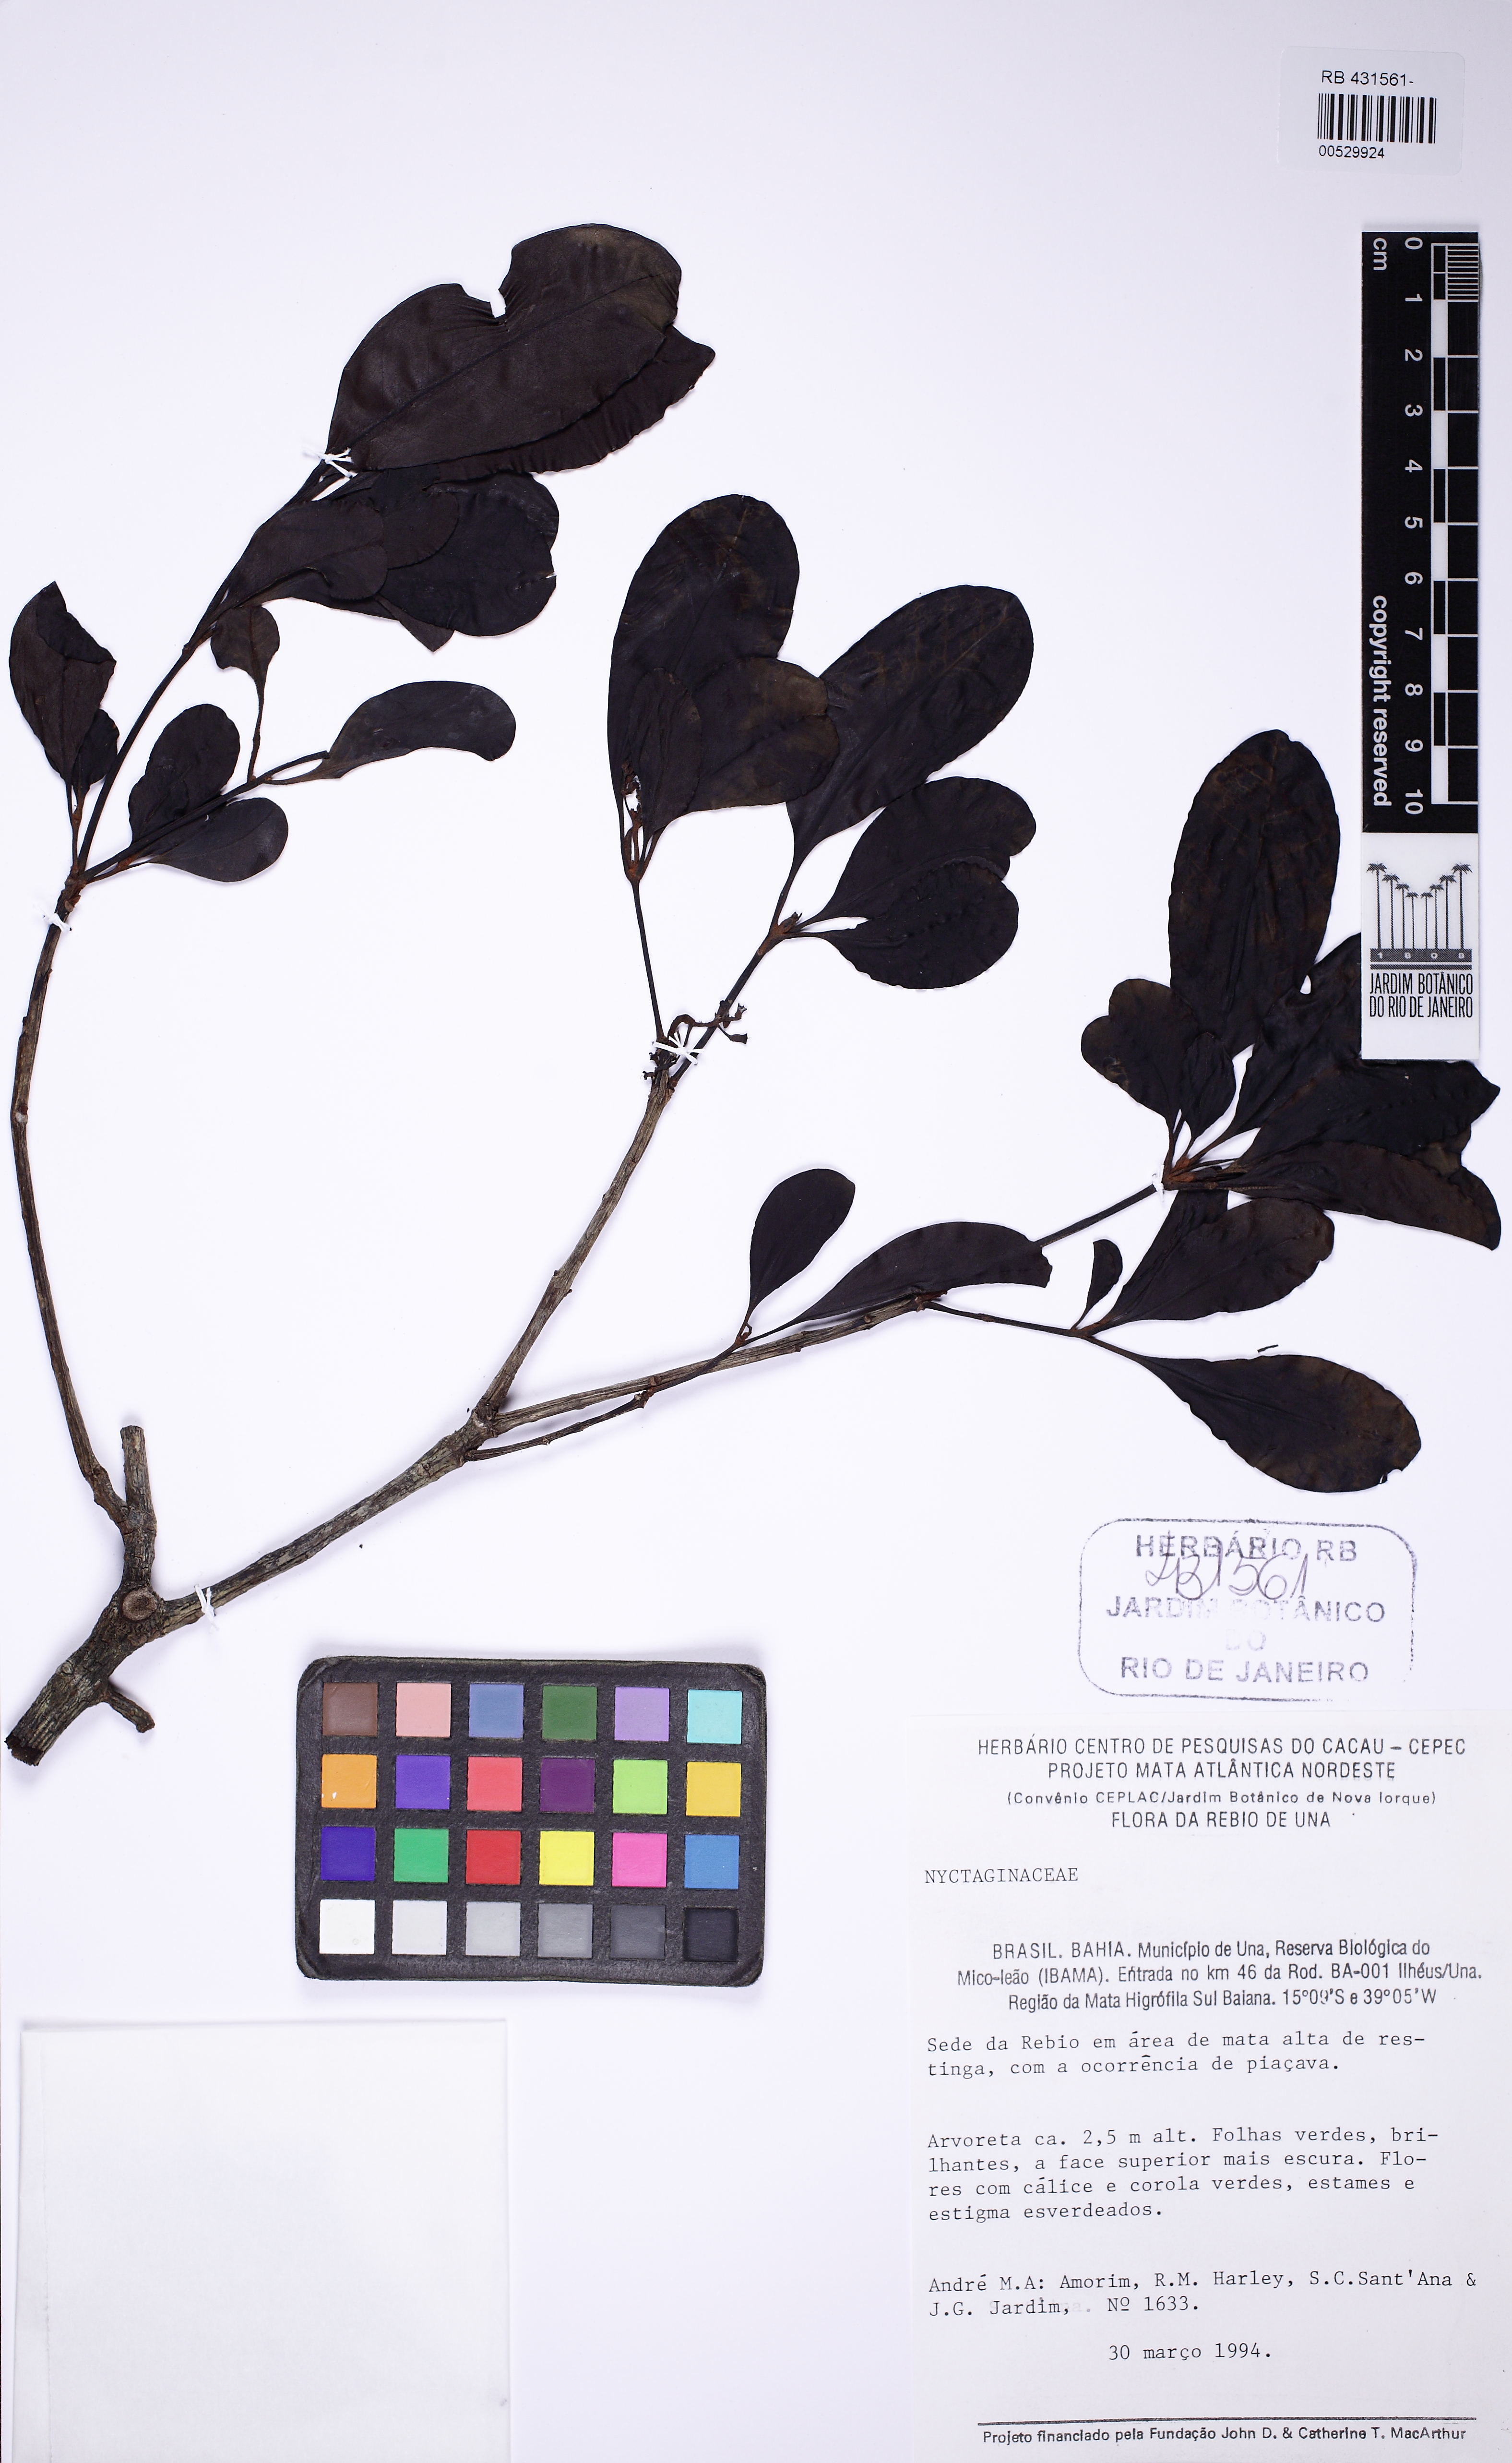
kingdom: Plantae
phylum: Tracheophyta
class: Magnoliopsida
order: Caryophyllales
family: Nyctaginaceae
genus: Guapira
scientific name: Guapira obtusata
